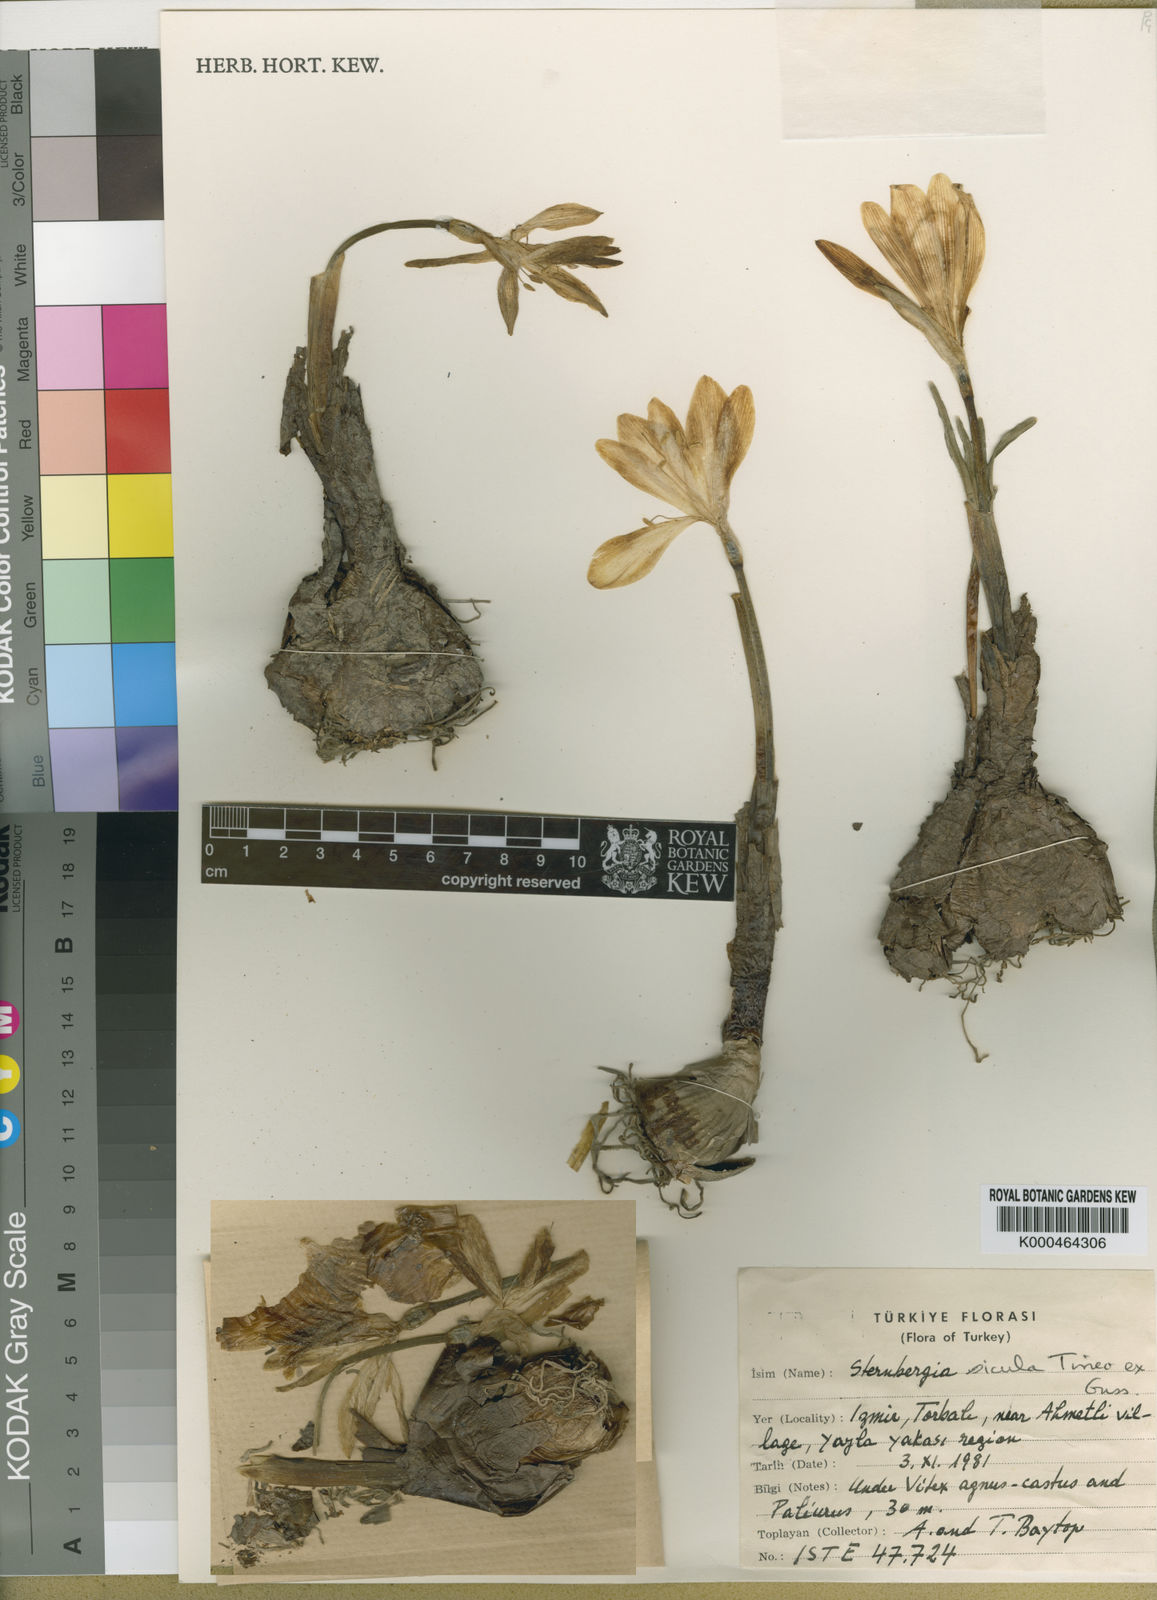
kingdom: Plantae
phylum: Tracheophyta
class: Liliopsida
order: Asparagales
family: Amaryllidaceae
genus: Sternbergia
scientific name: Sternbergia
